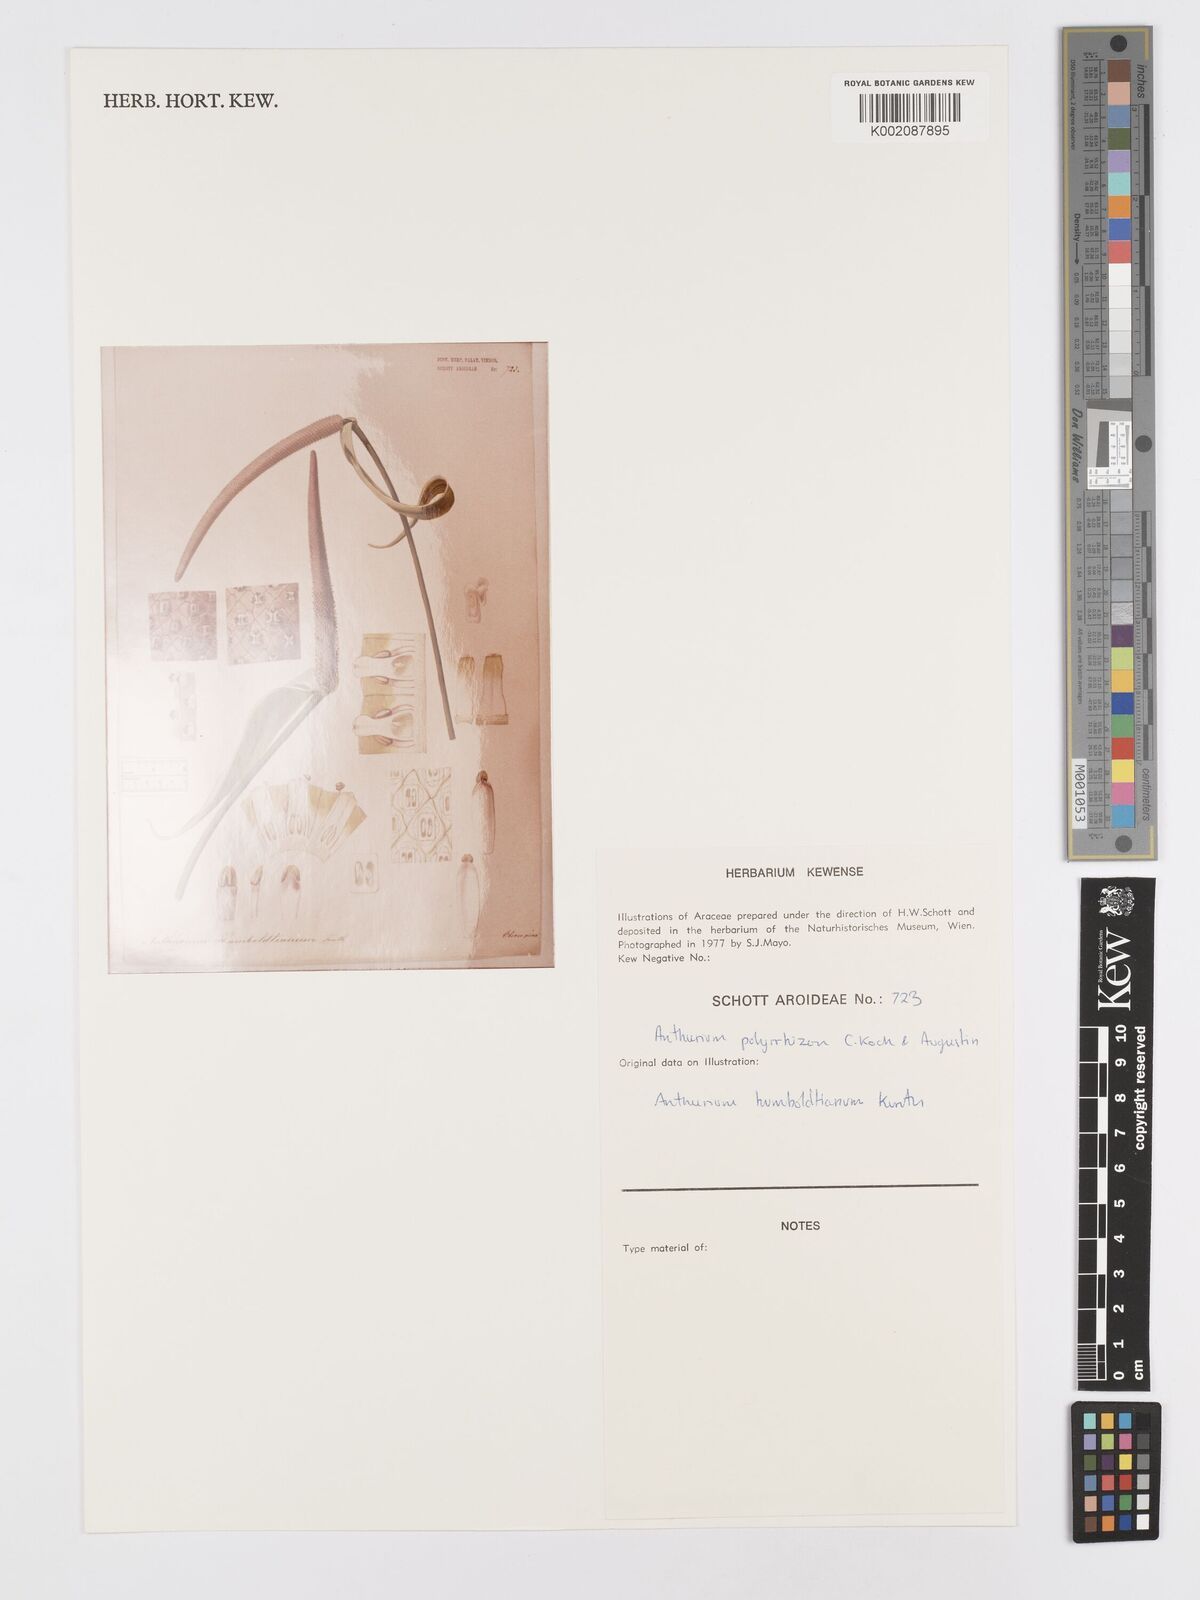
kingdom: Plantae
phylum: Tracheophyta
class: Liliopsida
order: Alismatales
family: Araceae
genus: Anthurium
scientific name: Anthurium sagittatum
